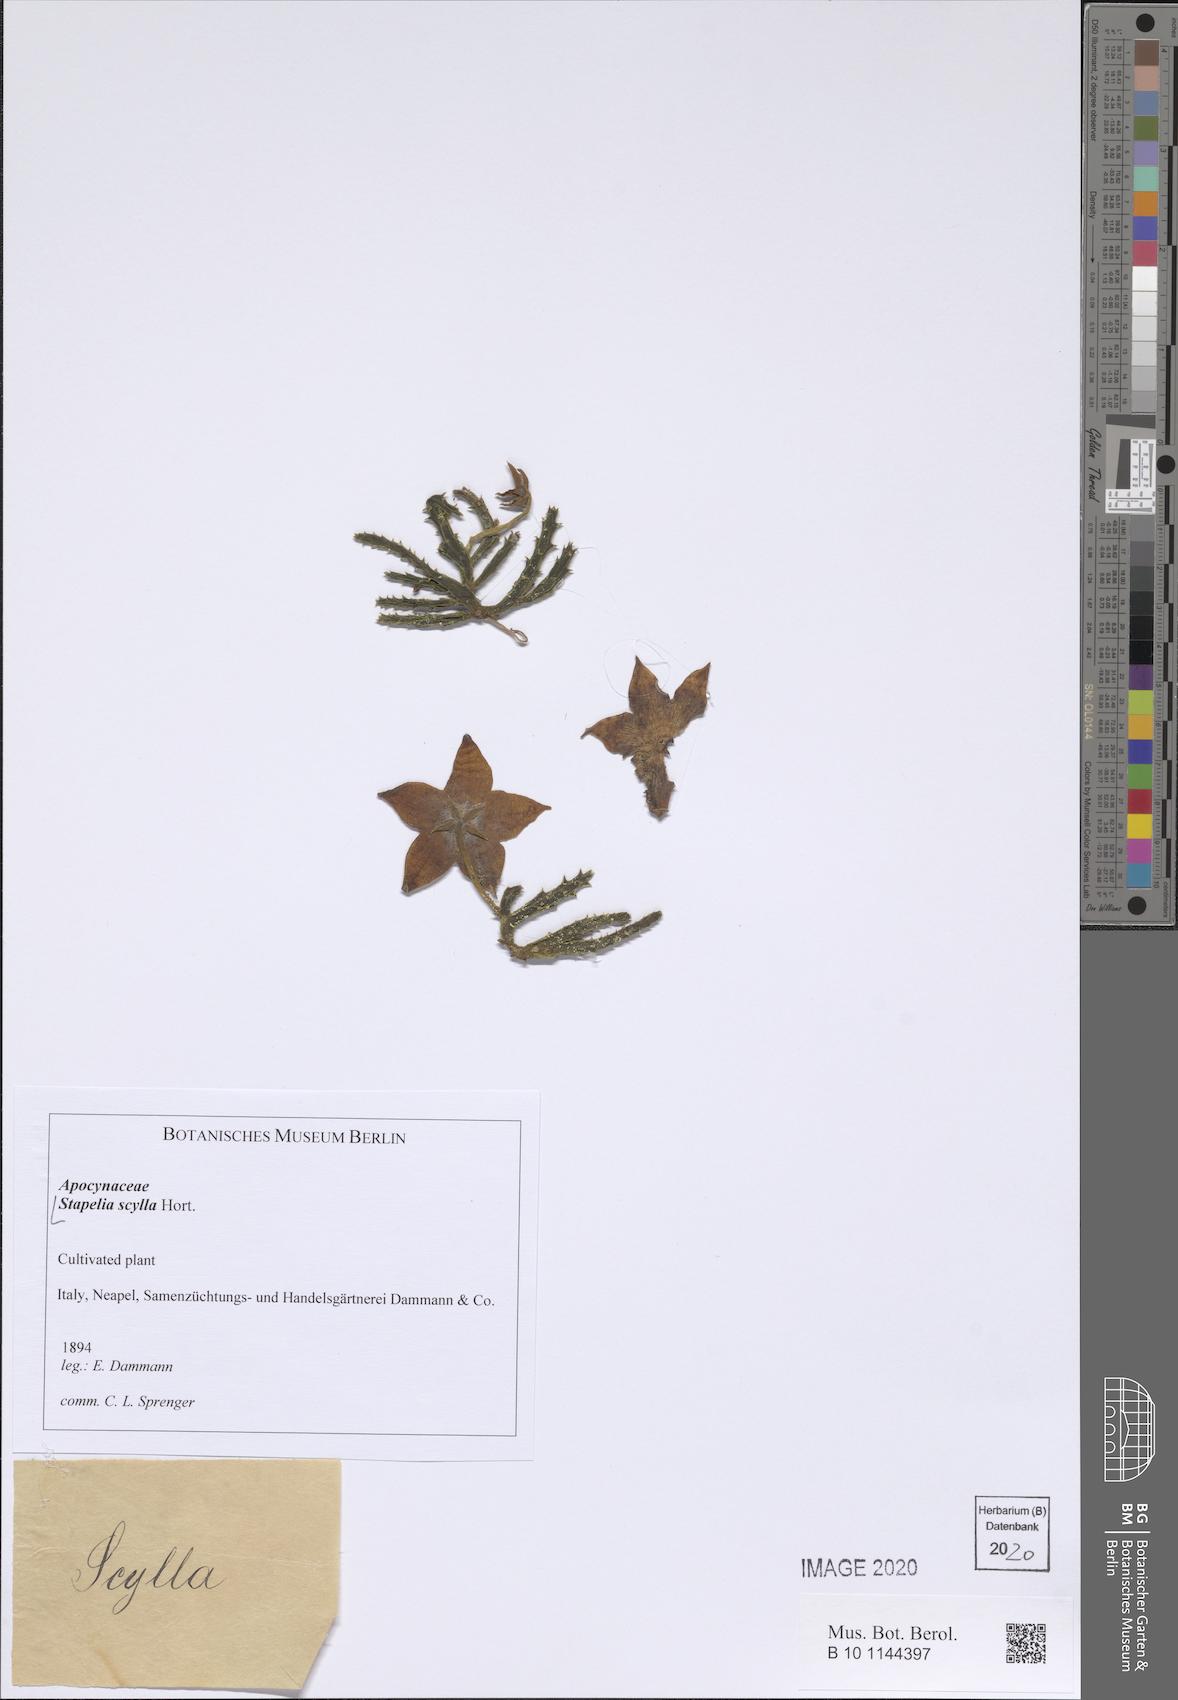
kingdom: Plantae
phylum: Tracheophyta
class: Magnoliopsida
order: Gentianales
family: Apocynaceae
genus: Ceropegia
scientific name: Ceropegia mixta
